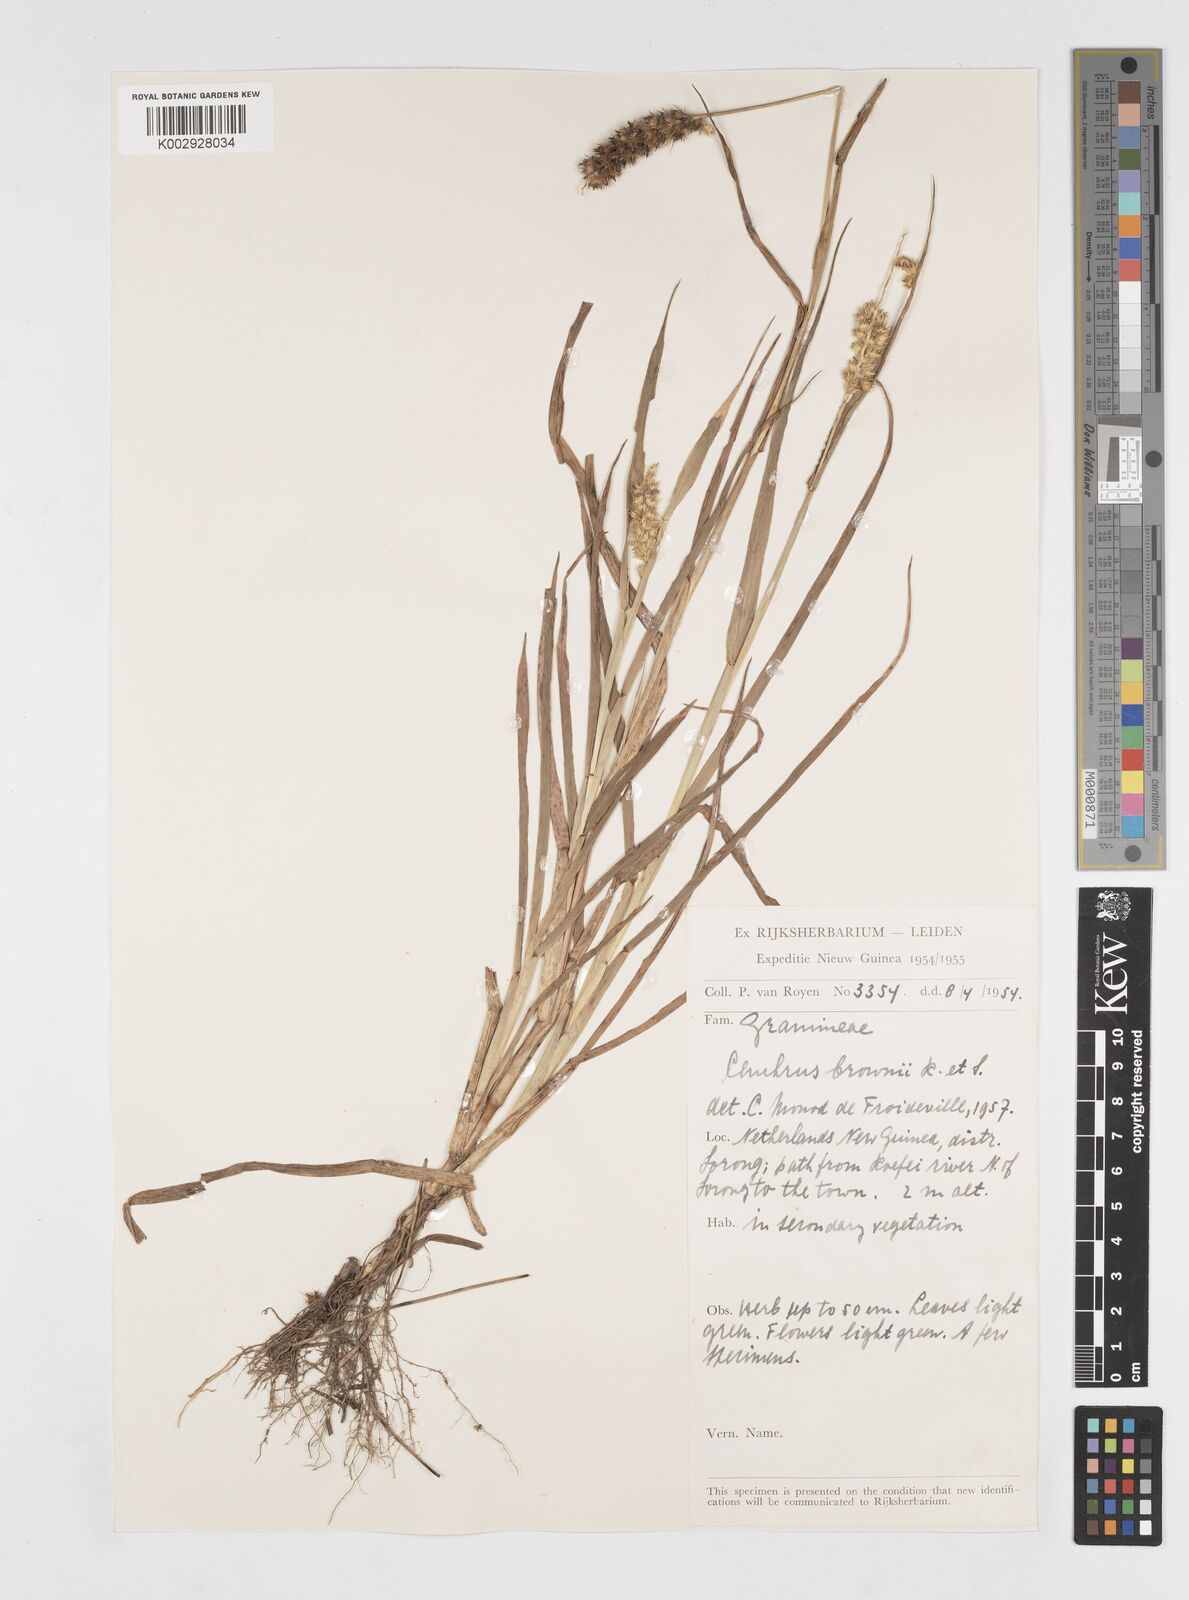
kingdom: Plantae
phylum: Tracheophyta
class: Liliopsida
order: Poales
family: Poaceae
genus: Cenchrus
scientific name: Cenchrus brownii
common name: Slim-bristle sandbur
